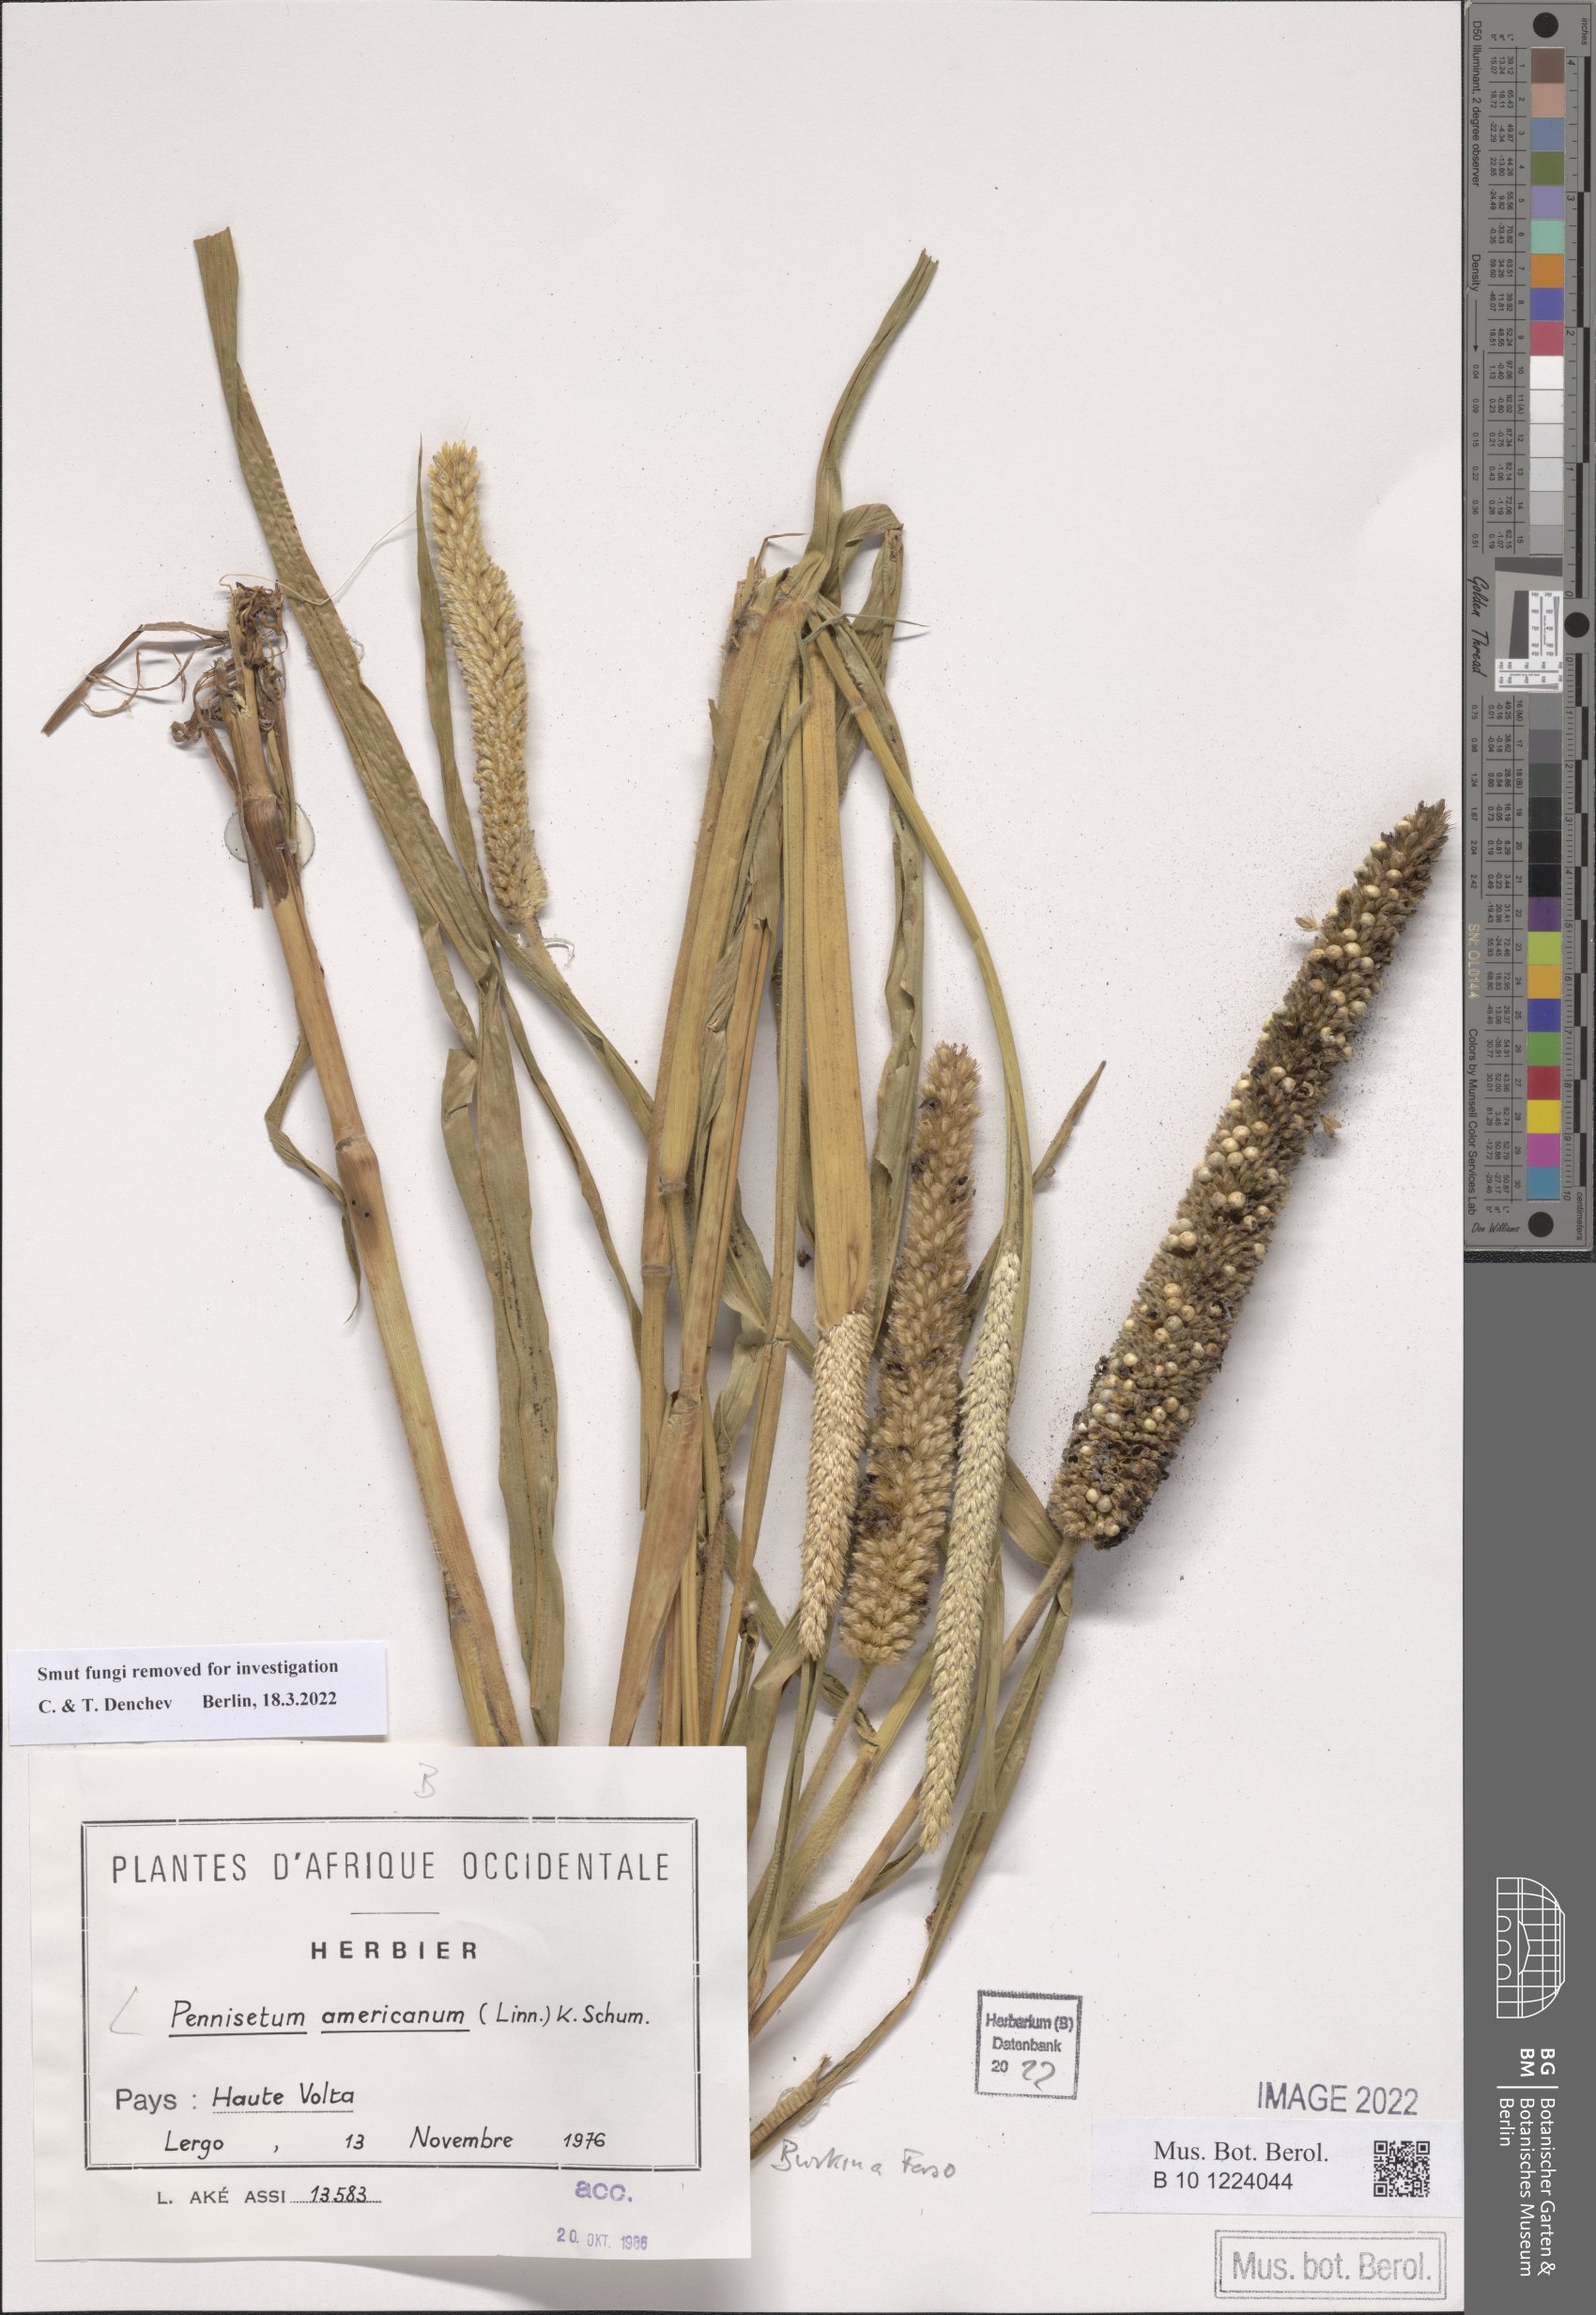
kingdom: Plantae
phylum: Tracheophyta
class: Liliopsida
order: Poales
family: Poaceae
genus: Cenchrus
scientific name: Cenchrus americanus
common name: Pearl millet
